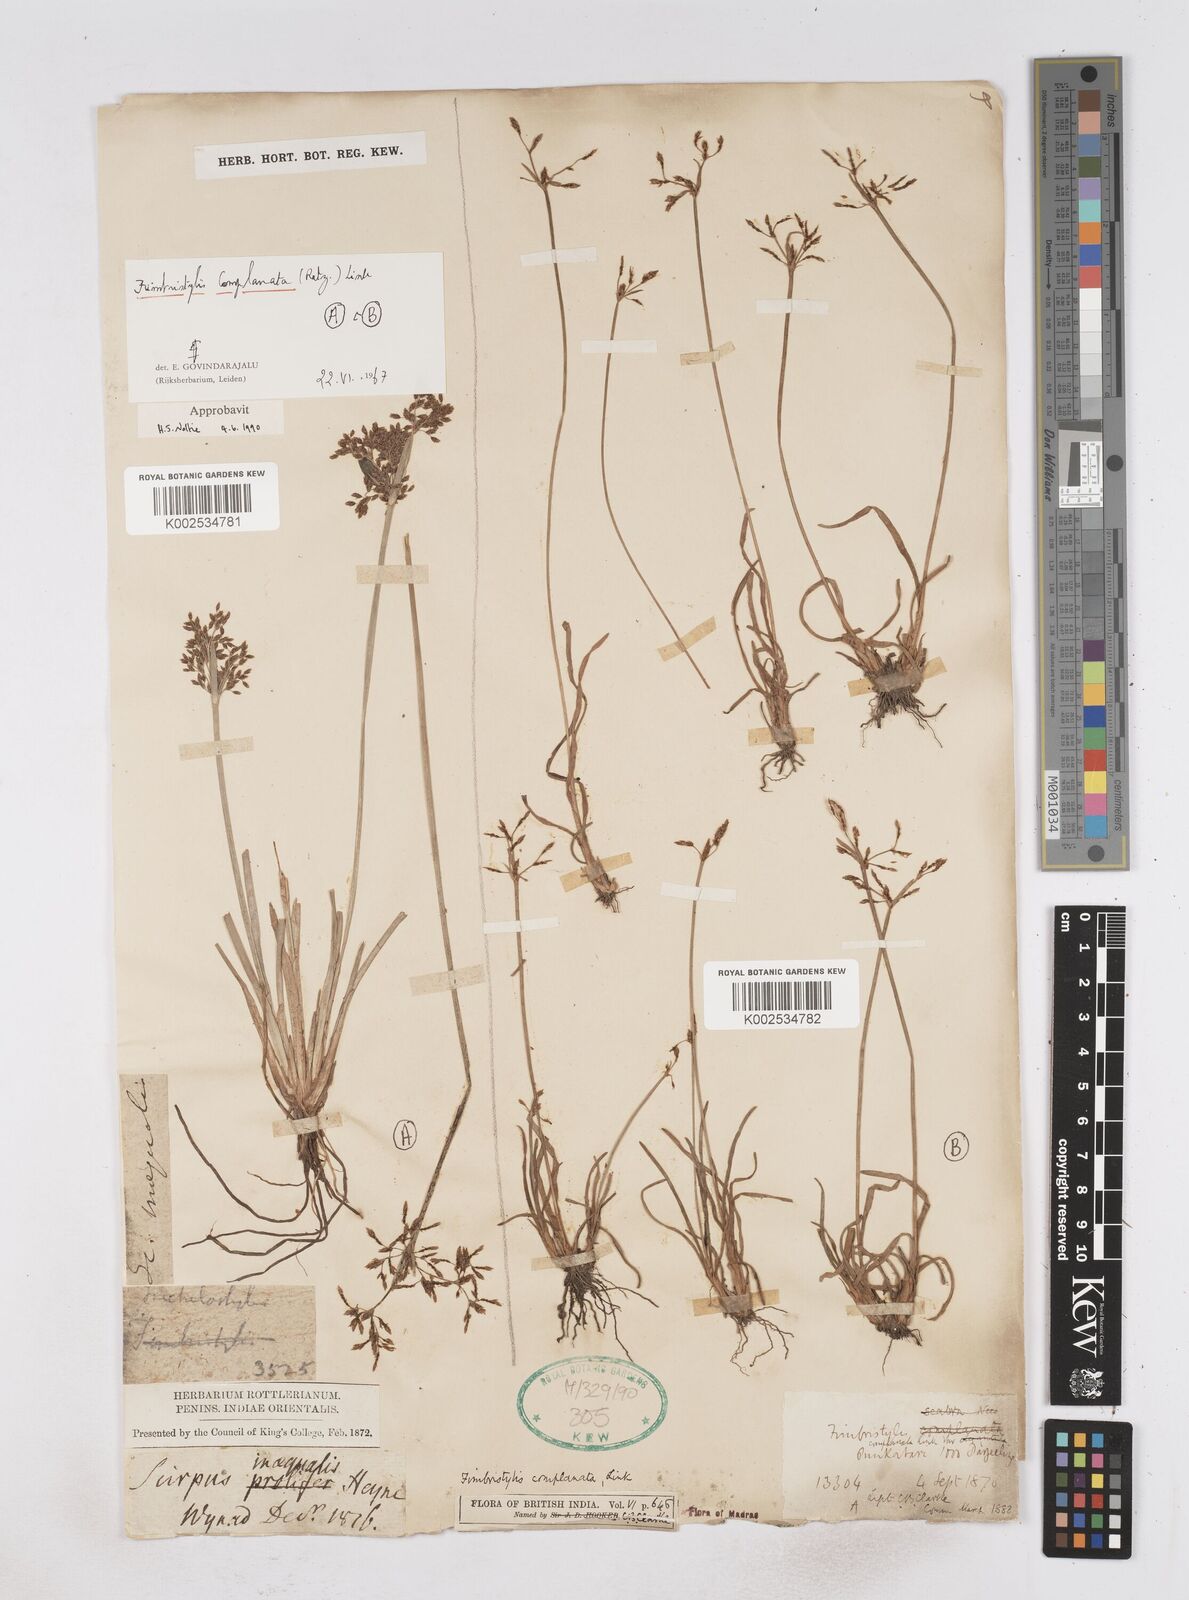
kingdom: Plantae
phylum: Tracheophyta
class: Liliopsida
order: Poales
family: Cyperaceae
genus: Fimbristylis
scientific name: Fimbristylis complanata
